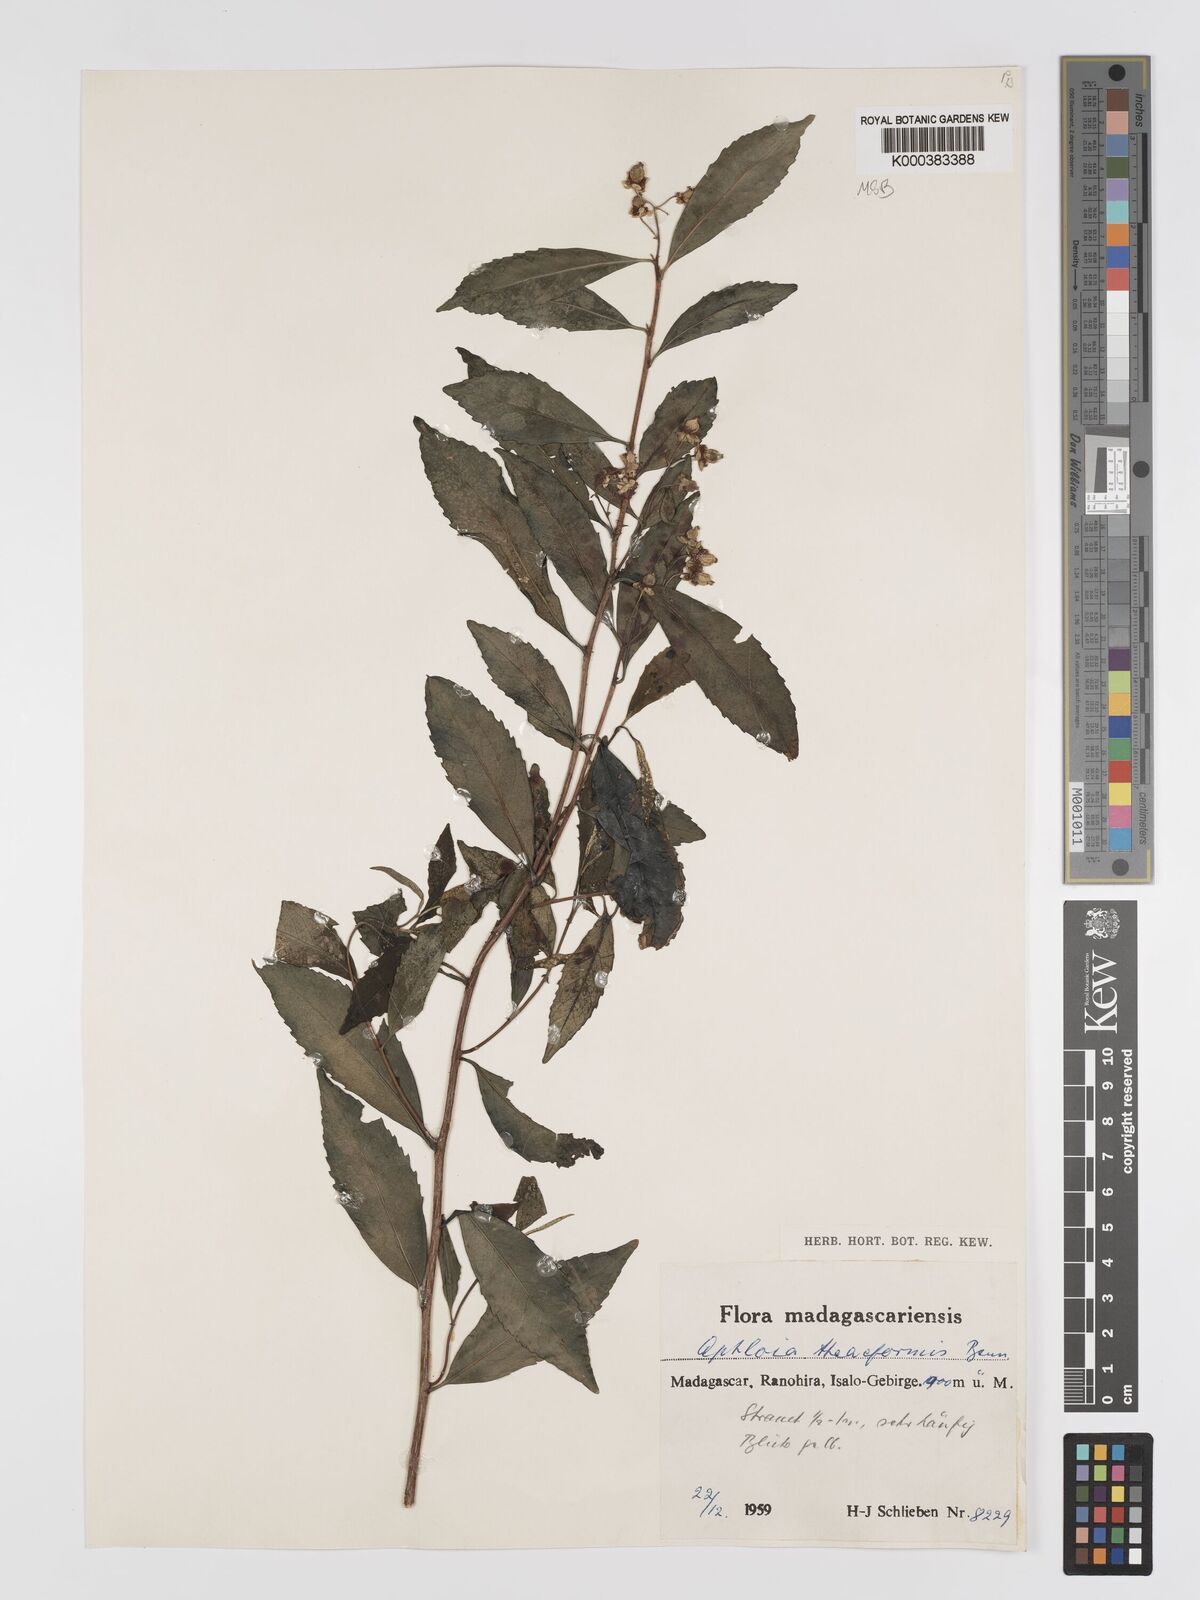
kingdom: Plantae
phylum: Tracheophyta
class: Magnoliopsida
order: Crossosomatales
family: Aphloiaceae
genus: Aphloia
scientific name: Aphloia theiformis
